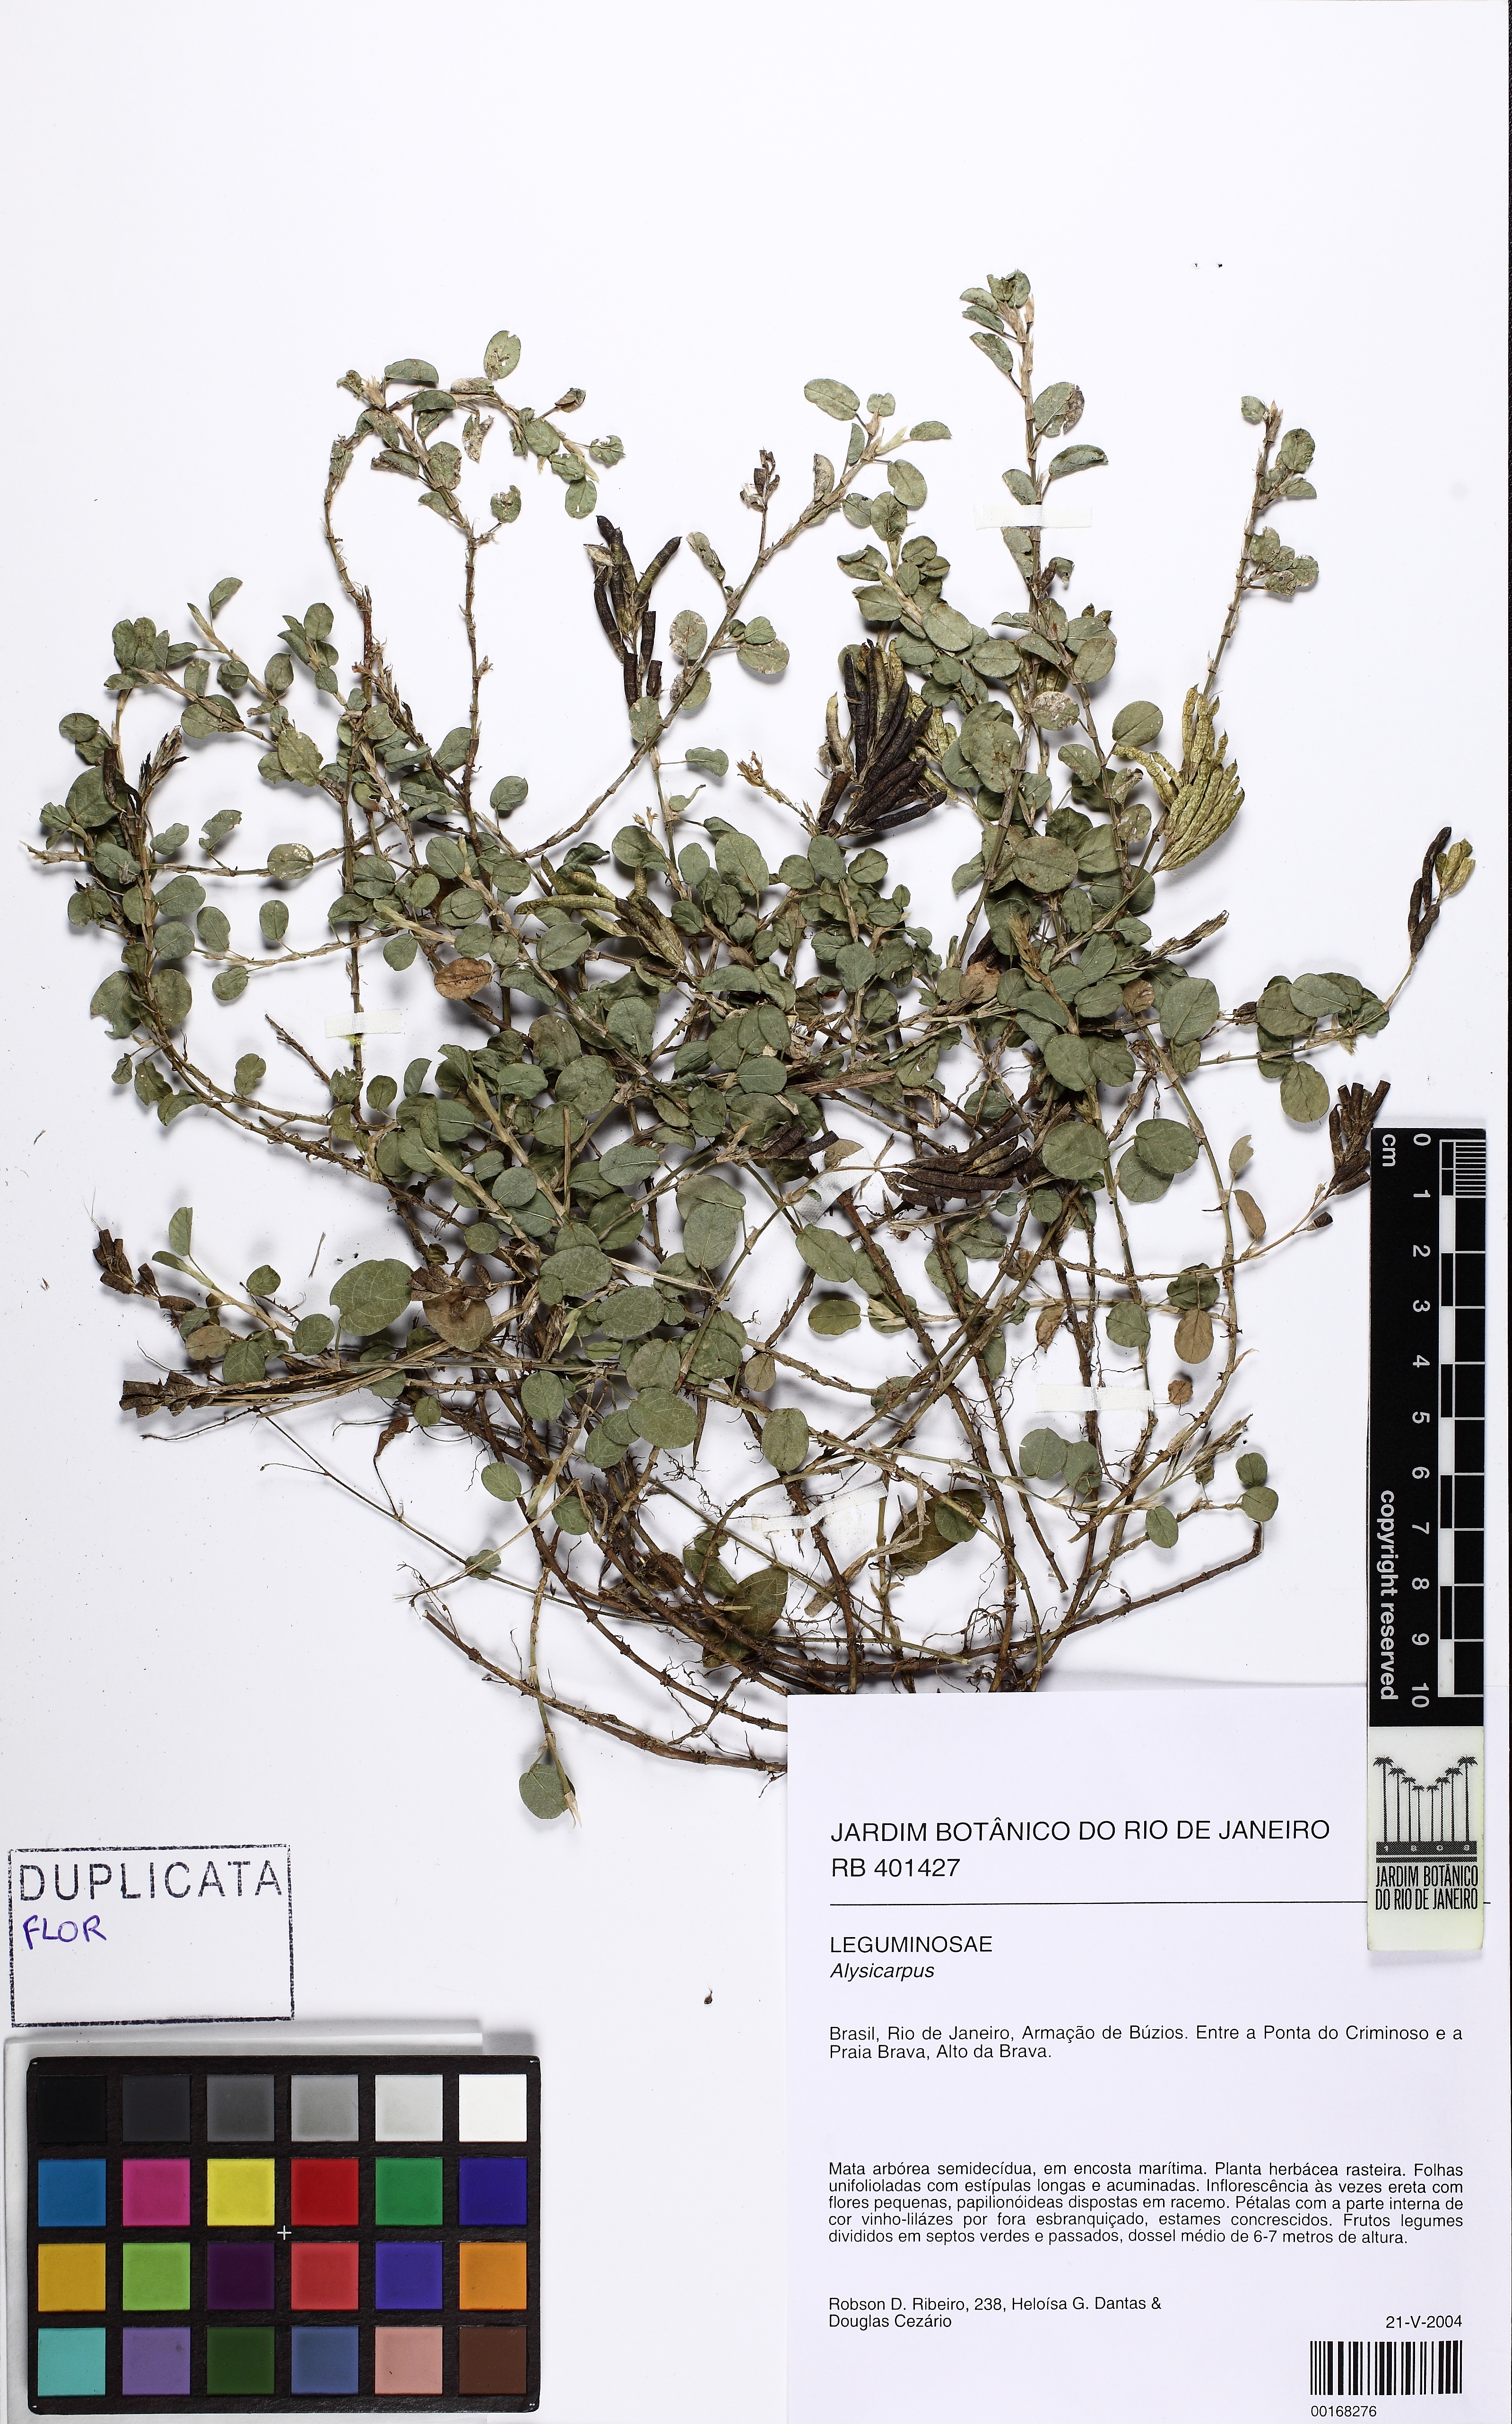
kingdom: Plantae
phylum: Tracheophyta
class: Magnoliopsida
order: Fabales
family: Fabaceae
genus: Alysicarpus
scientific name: Alysicarpus
